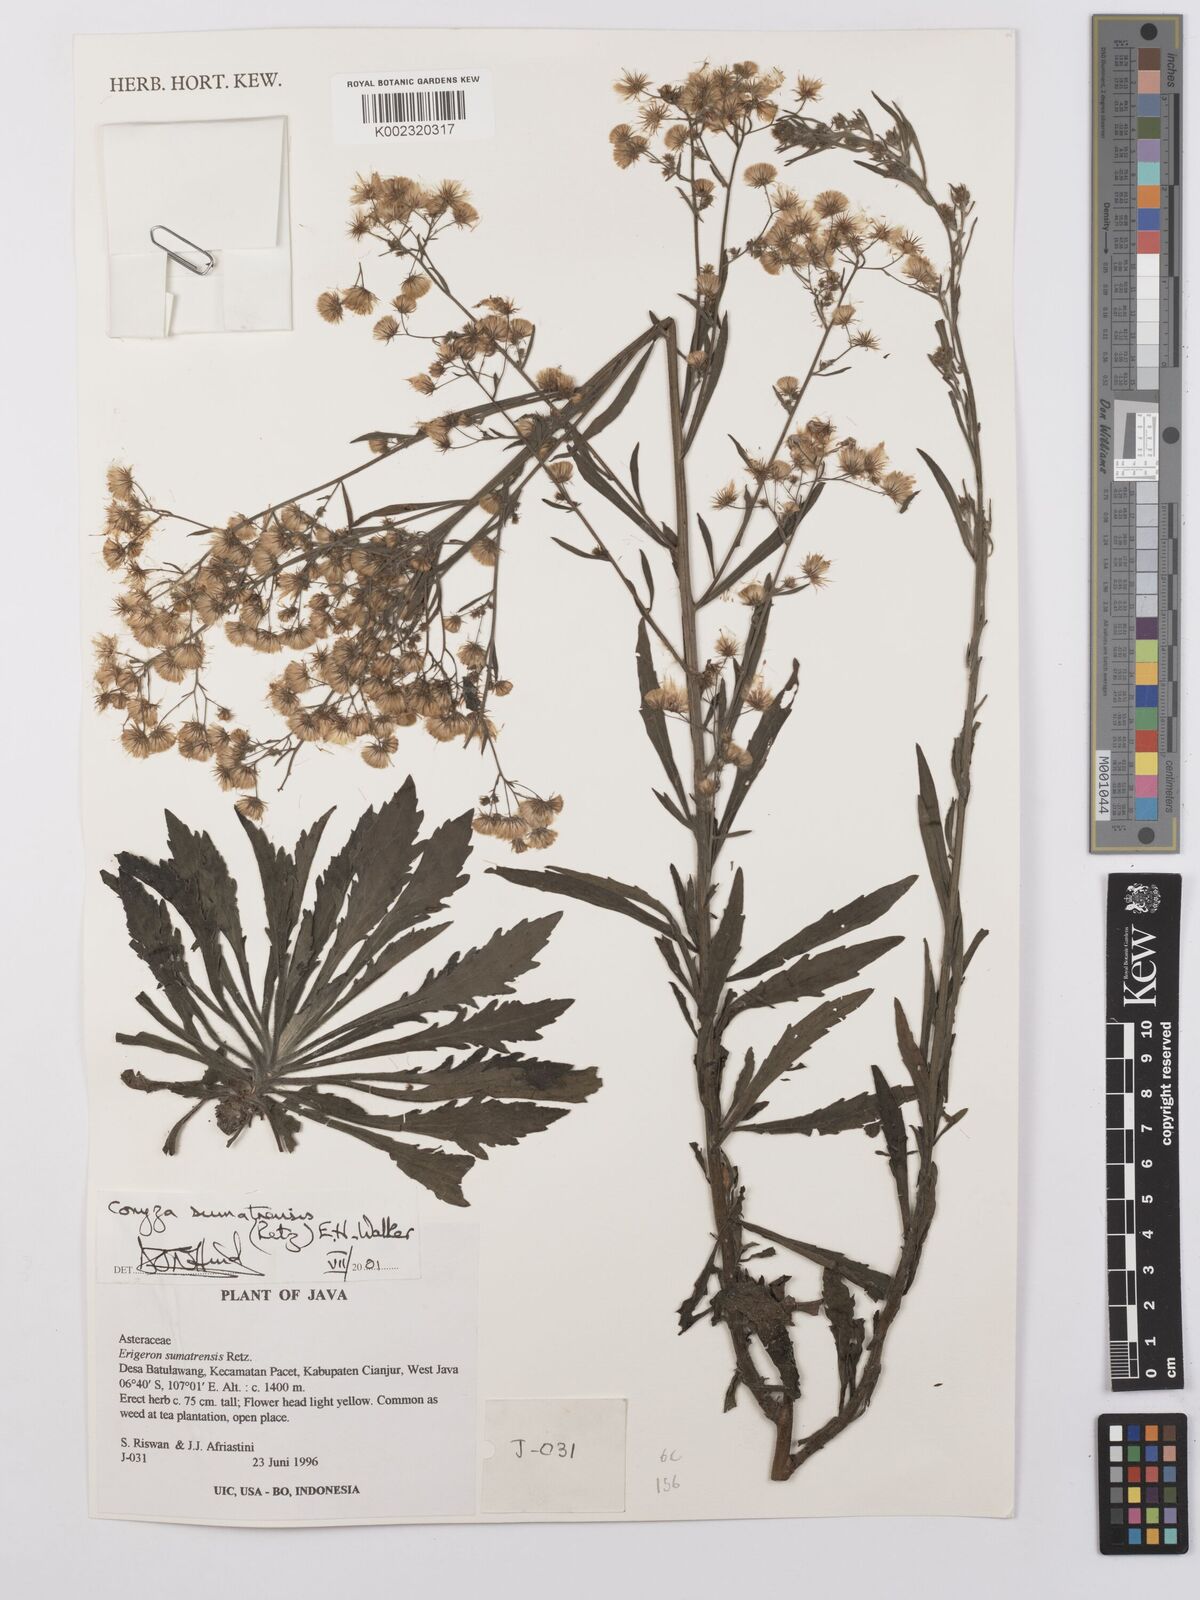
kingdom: Plantae
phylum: Tracheophyta
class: Magnoliopsida
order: Asterales
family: Asteraceae
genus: Erigeron
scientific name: Erigeron sumatrensis
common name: Daisy
